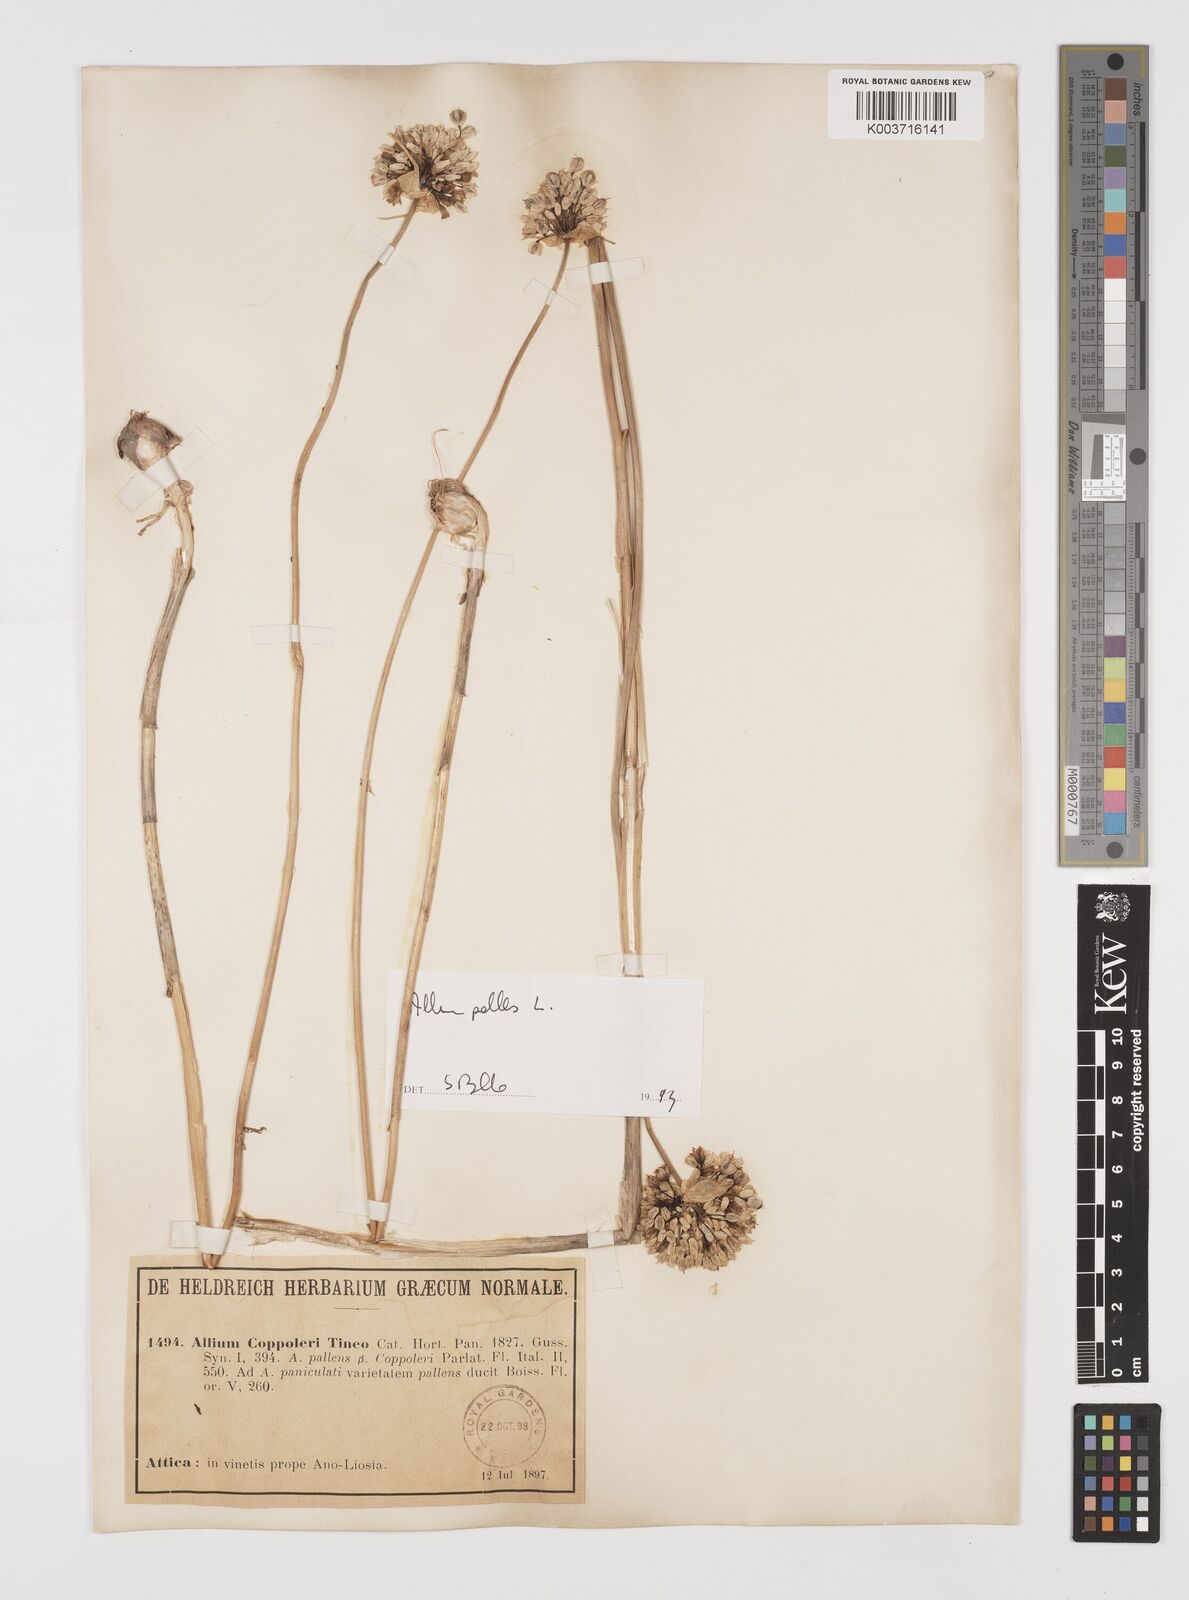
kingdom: Plantae
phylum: Tracheophyta
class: Liliopsida
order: Asparagales
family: Amaryllidaceae
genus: Allium
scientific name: Allium pallens
